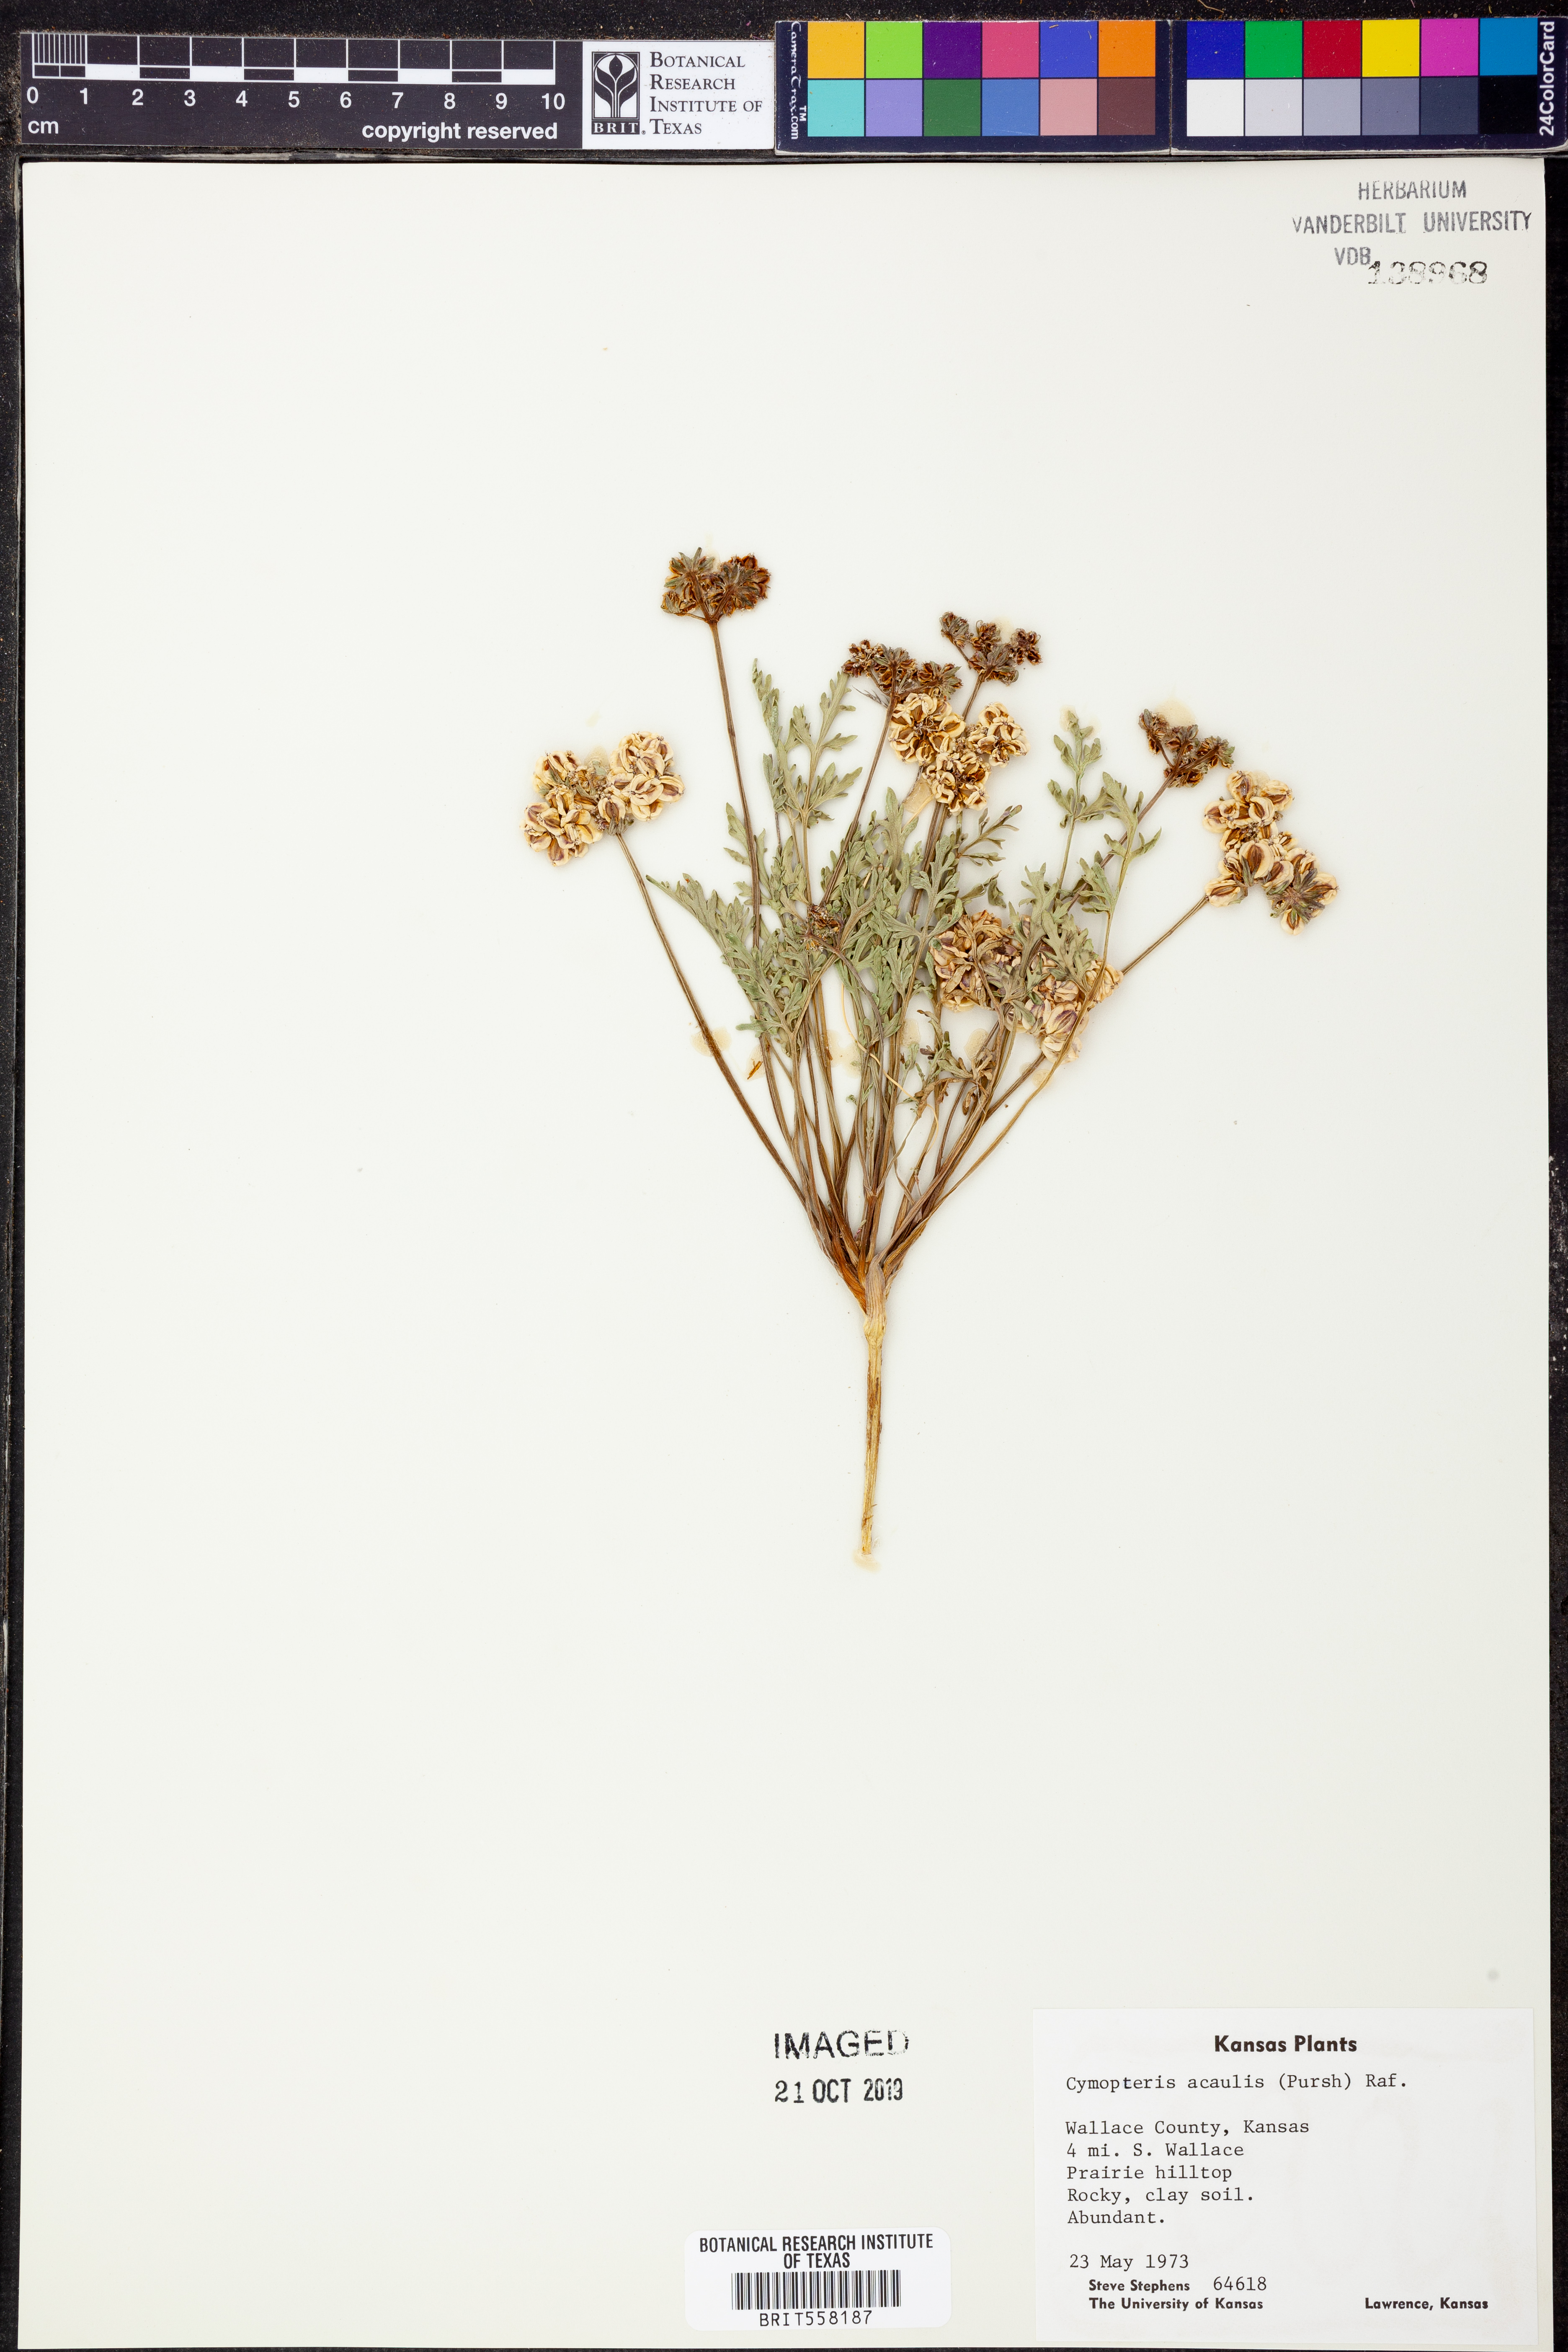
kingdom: Plantae
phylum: Tracheophyta
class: Magnoliopsida
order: Apiales
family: Apiaceae
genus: Cymopterus
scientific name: Cymopterus glomeratus
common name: Plains spring parsley
